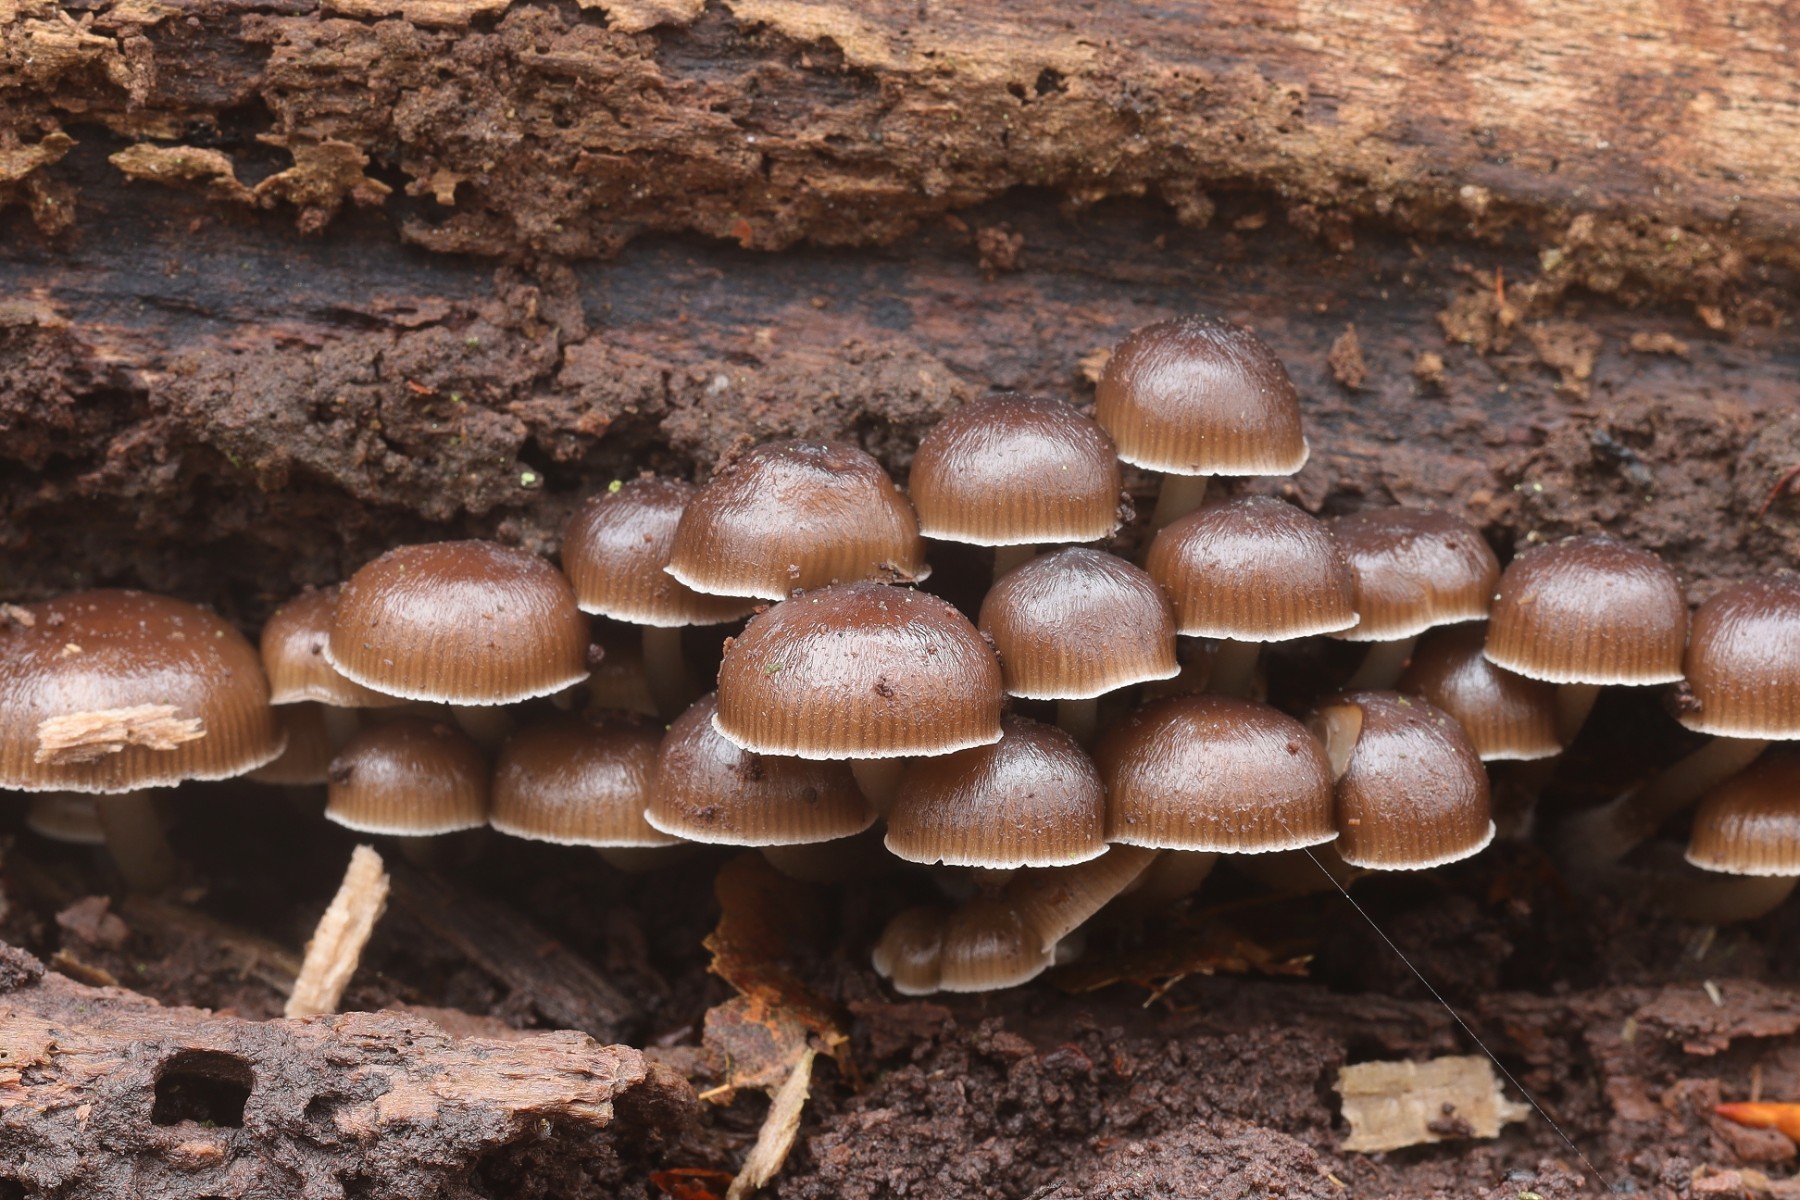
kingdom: Fungi
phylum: Basidiomycota
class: Agaricomycetes
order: Agaricales
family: Mycenaceae
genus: Mycena
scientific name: Mycena tintinnabulum
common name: vinter-huesvamp
